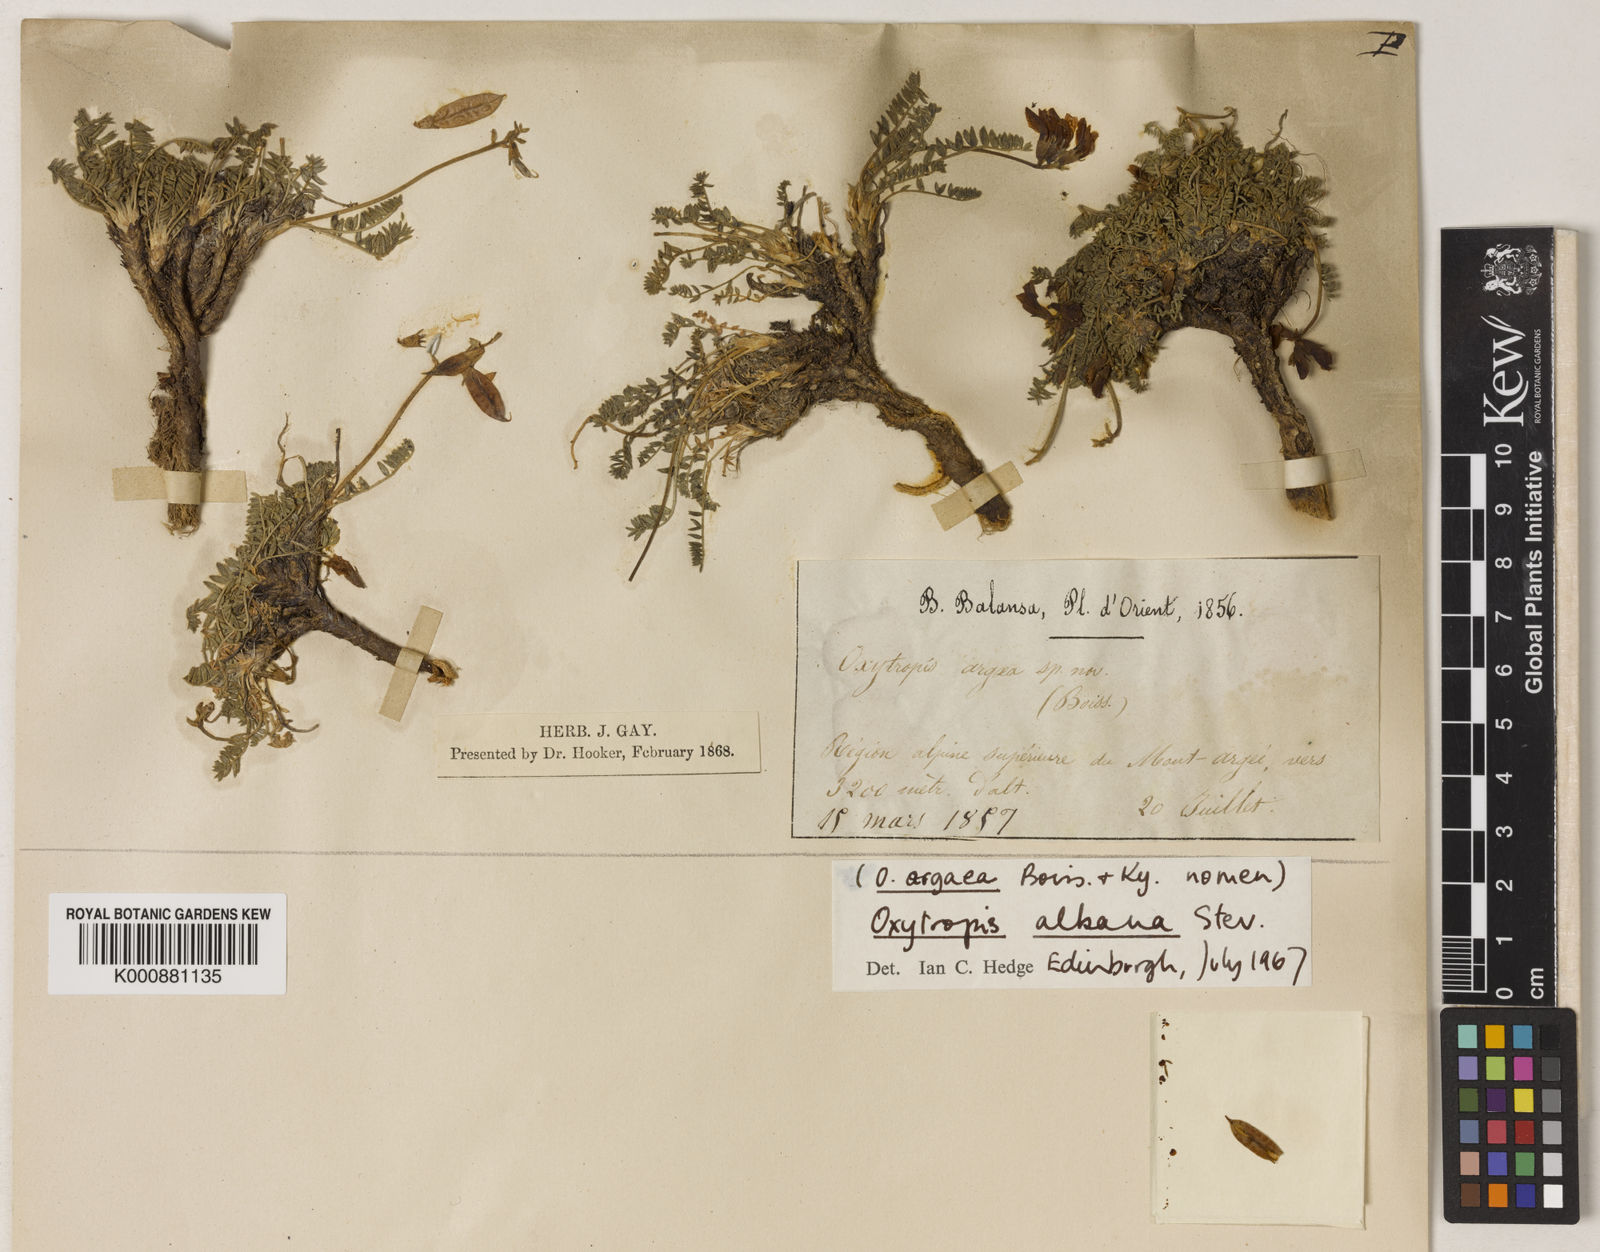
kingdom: Plantae
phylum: Tracheophyta
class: Magnoliopsida
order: Fabales
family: Fabaceae
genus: Oxytropis
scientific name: Oxytropis albana
